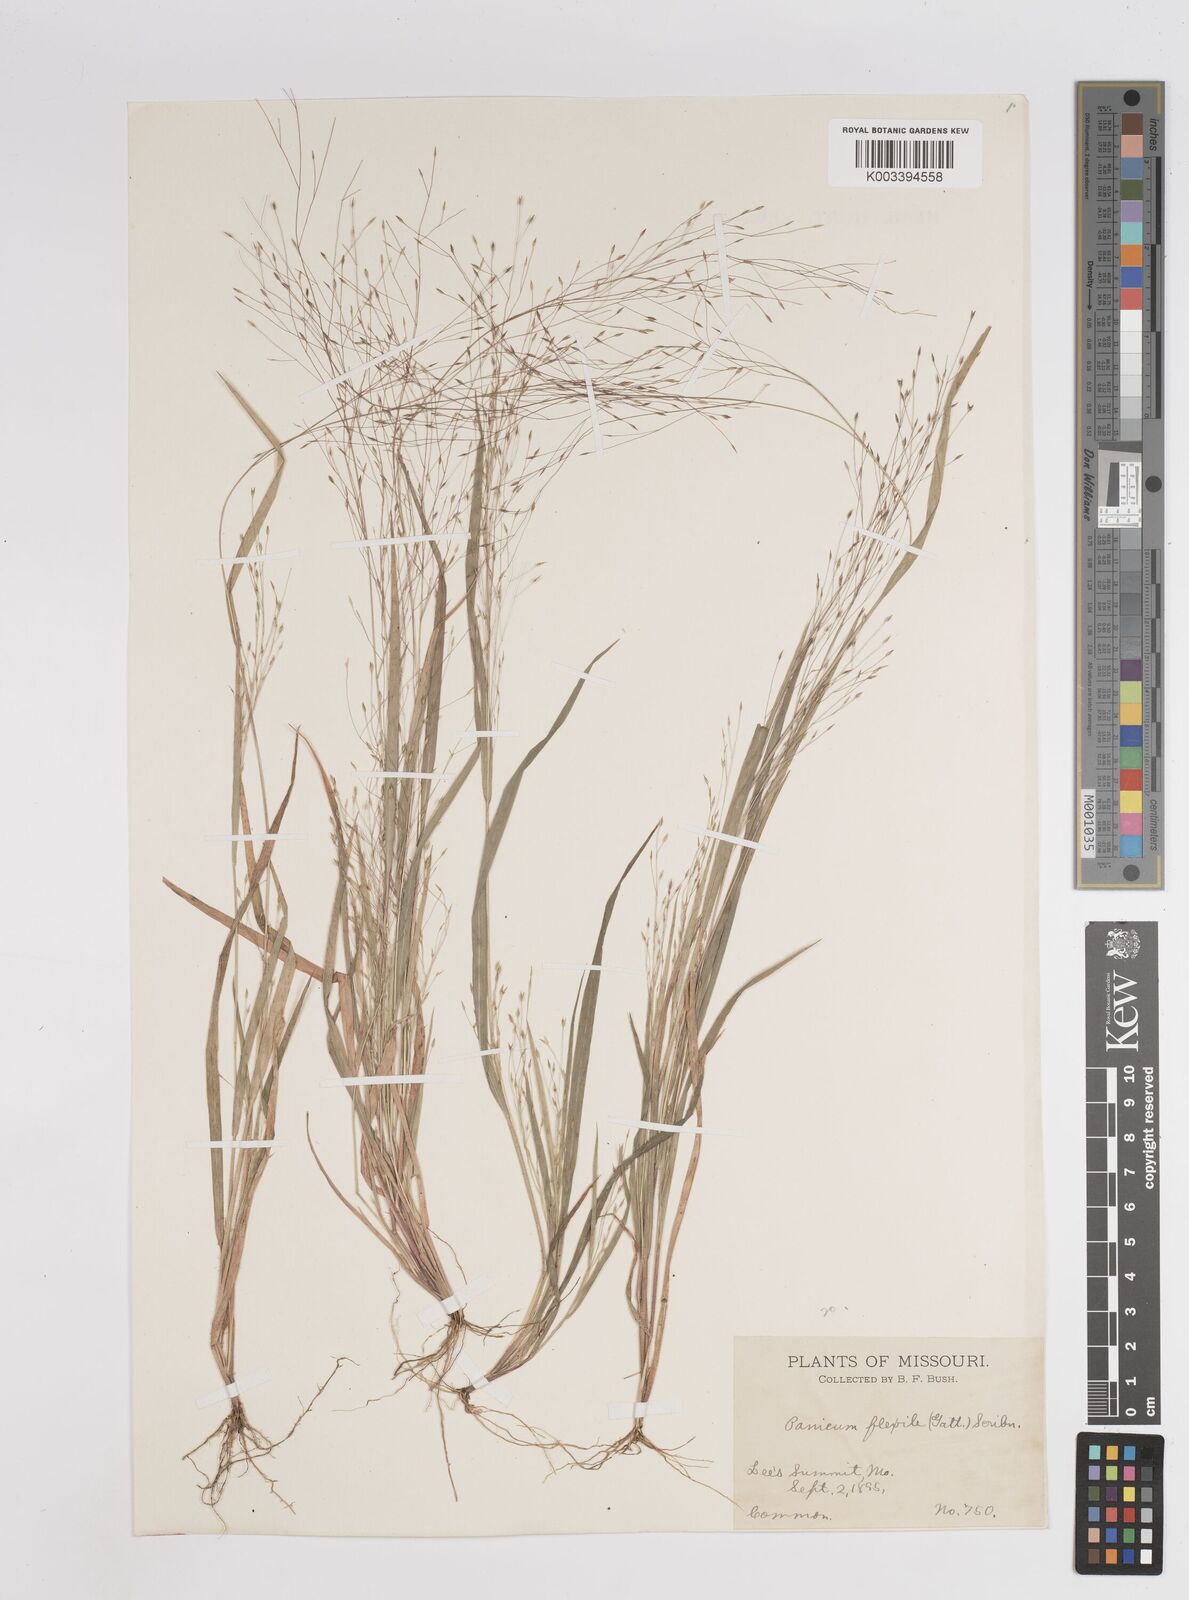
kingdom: Plantae
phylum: Tracheophyta
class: Liliopsida
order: Poales
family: Poaceae
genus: Panicum
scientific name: Panicum flexile
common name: Wiry panicgrass
